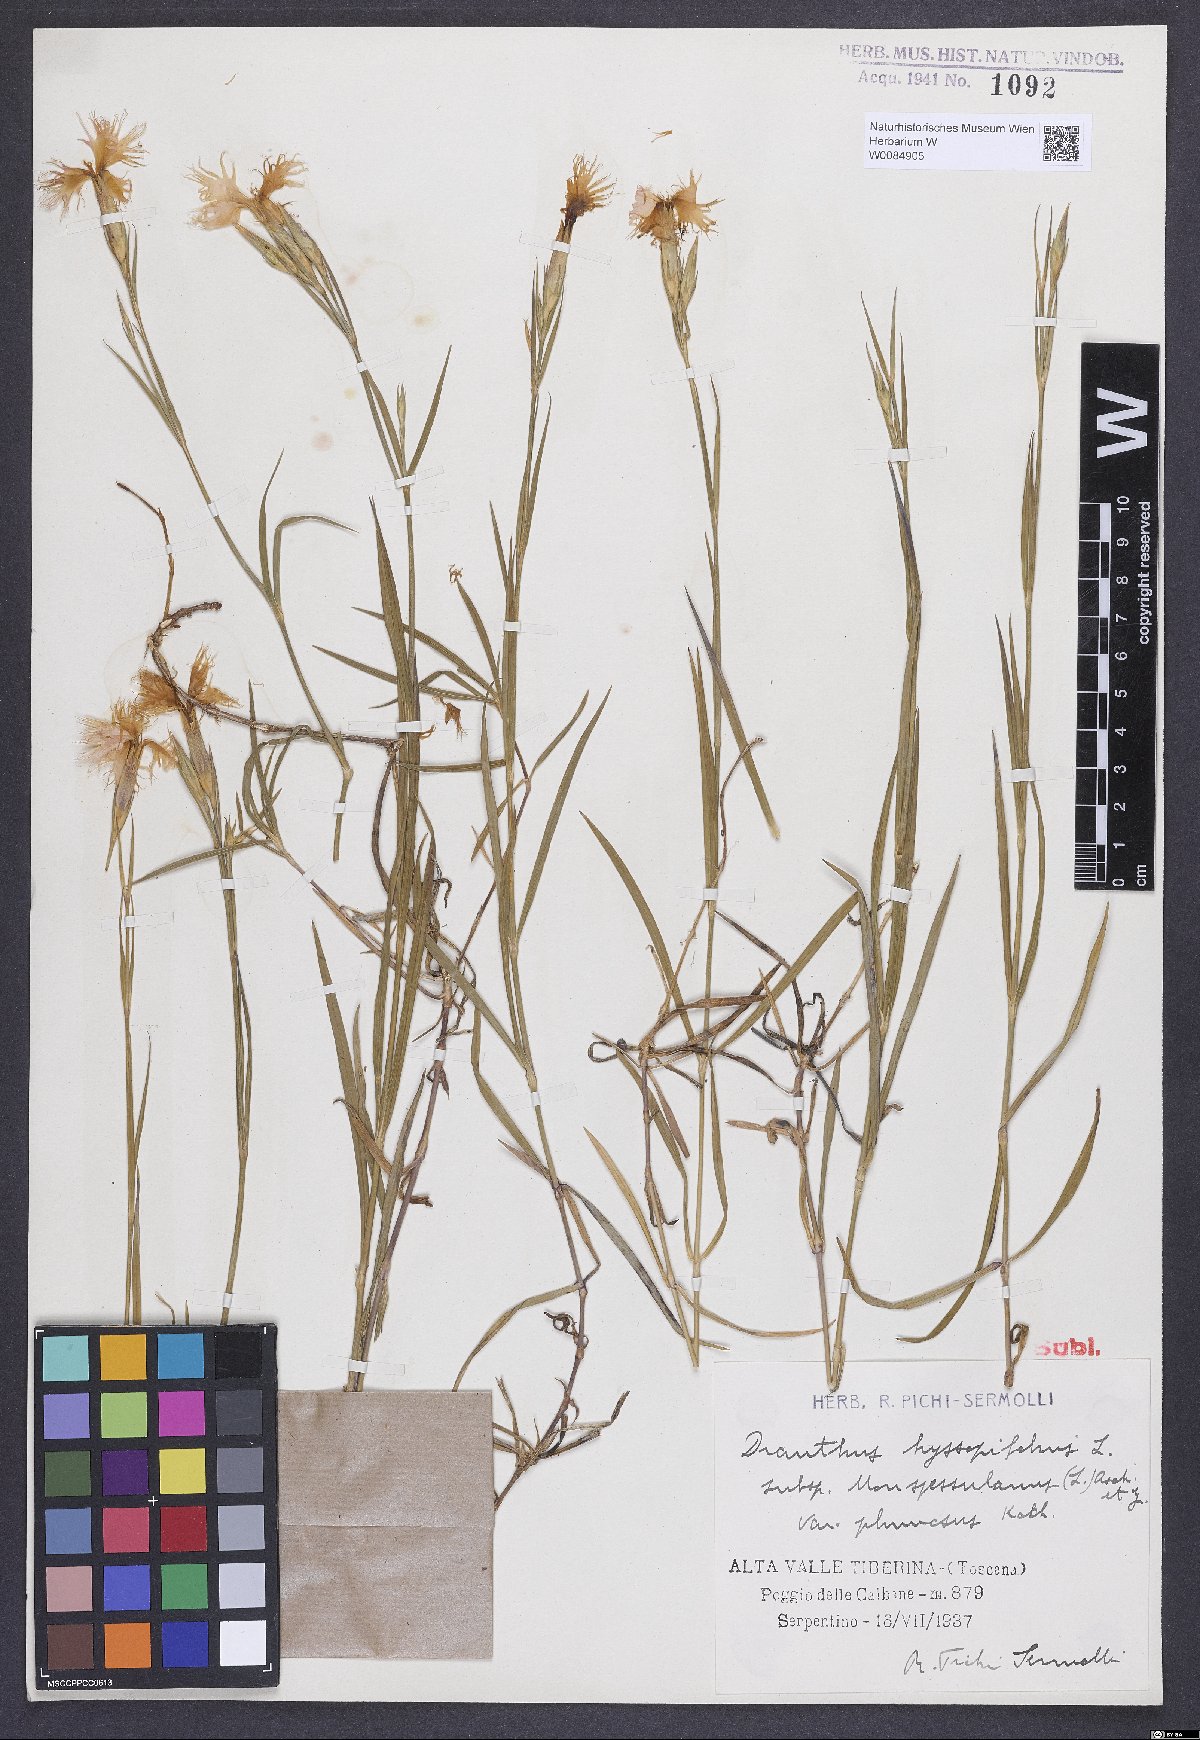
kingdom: Plantae
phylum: Tracheophyta
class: Magnoliopsida
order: Caryophyllales
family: Caryophyllaceae
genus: Dianthus
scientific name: Dianthus hyssopifolius
